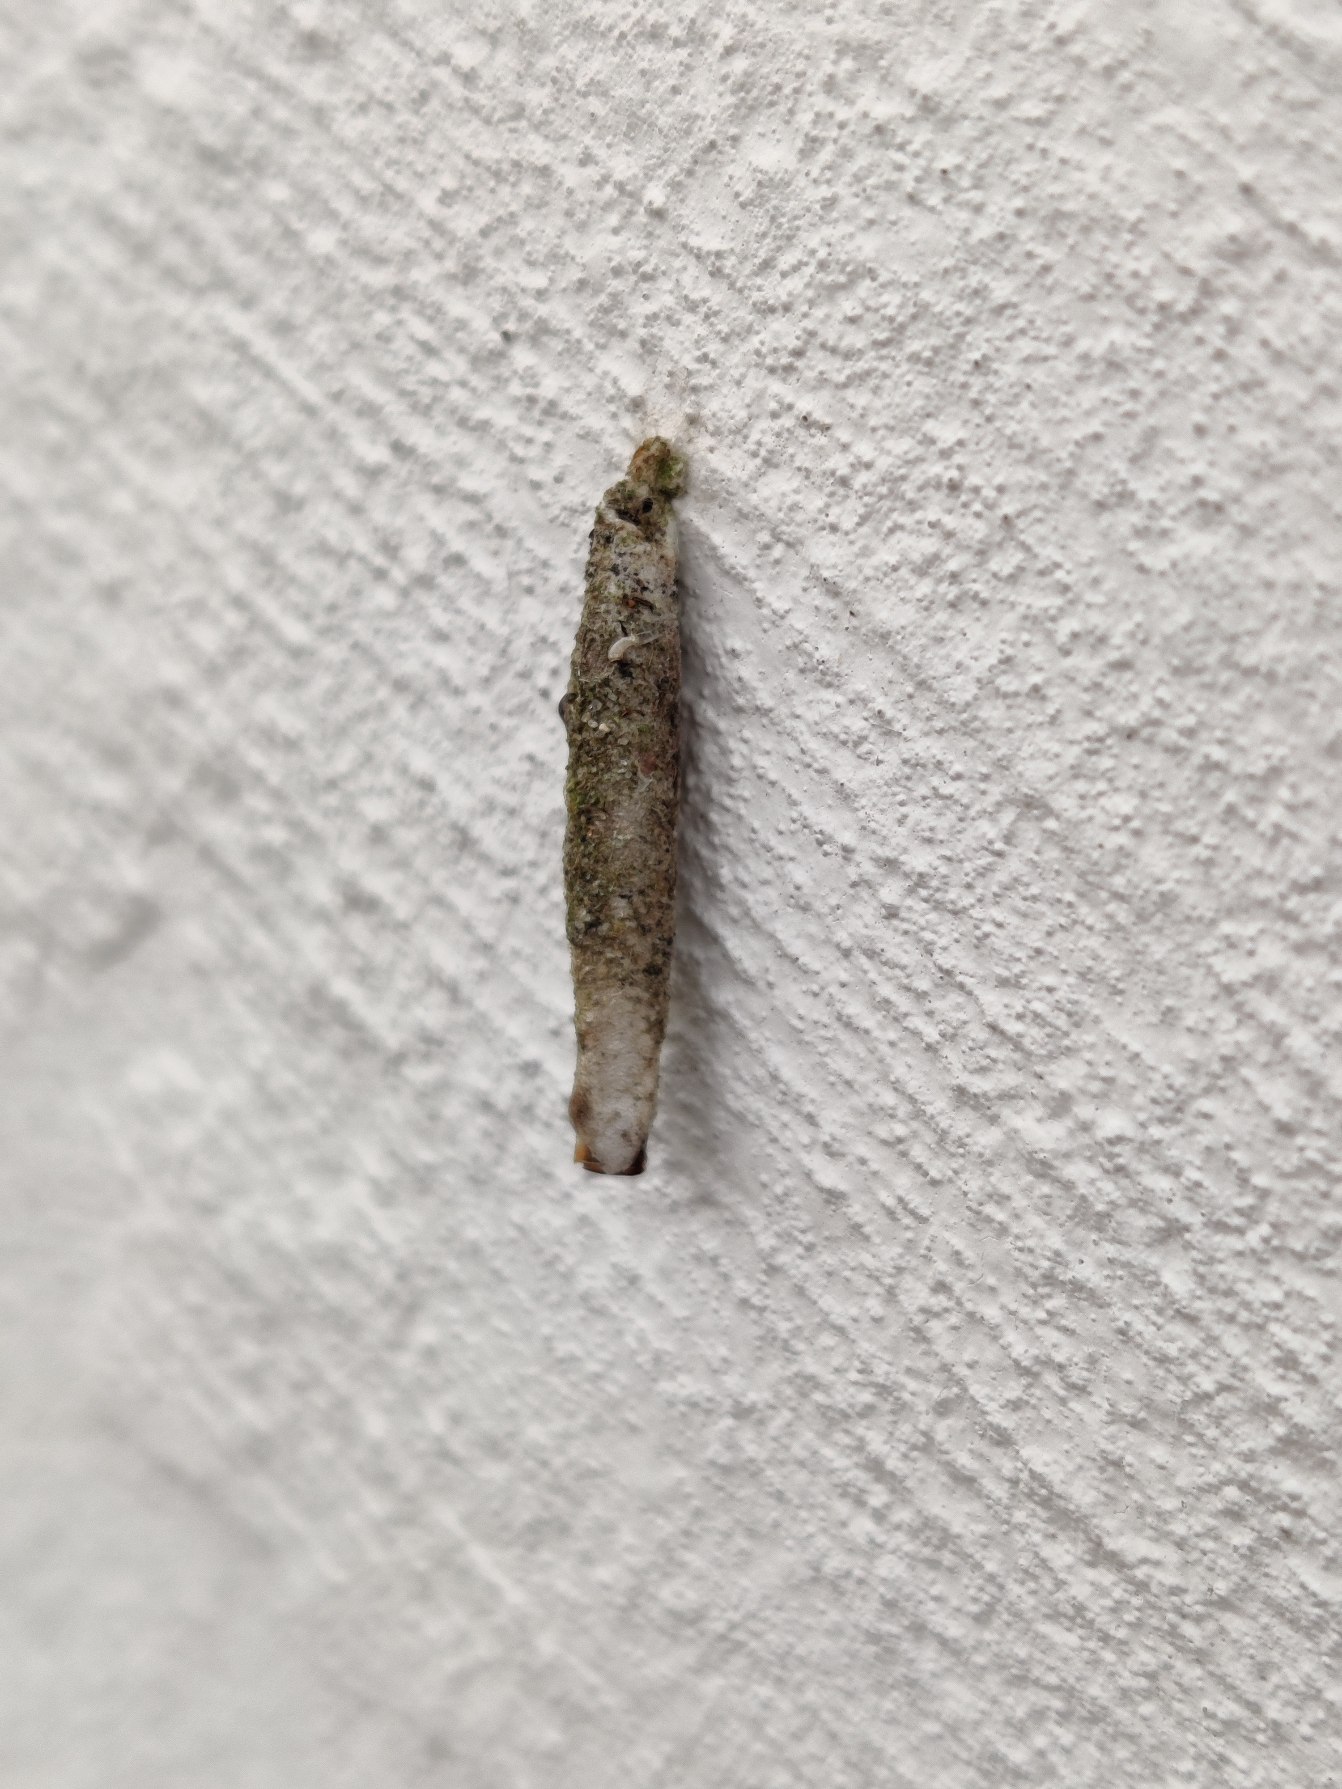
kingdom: Animalia
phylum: Arthropoda
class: Insecta
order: Lepidoptera
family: Psychidae
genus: Taleporia
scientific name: Taleporia tubulosa
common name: Cigarsækbærer
